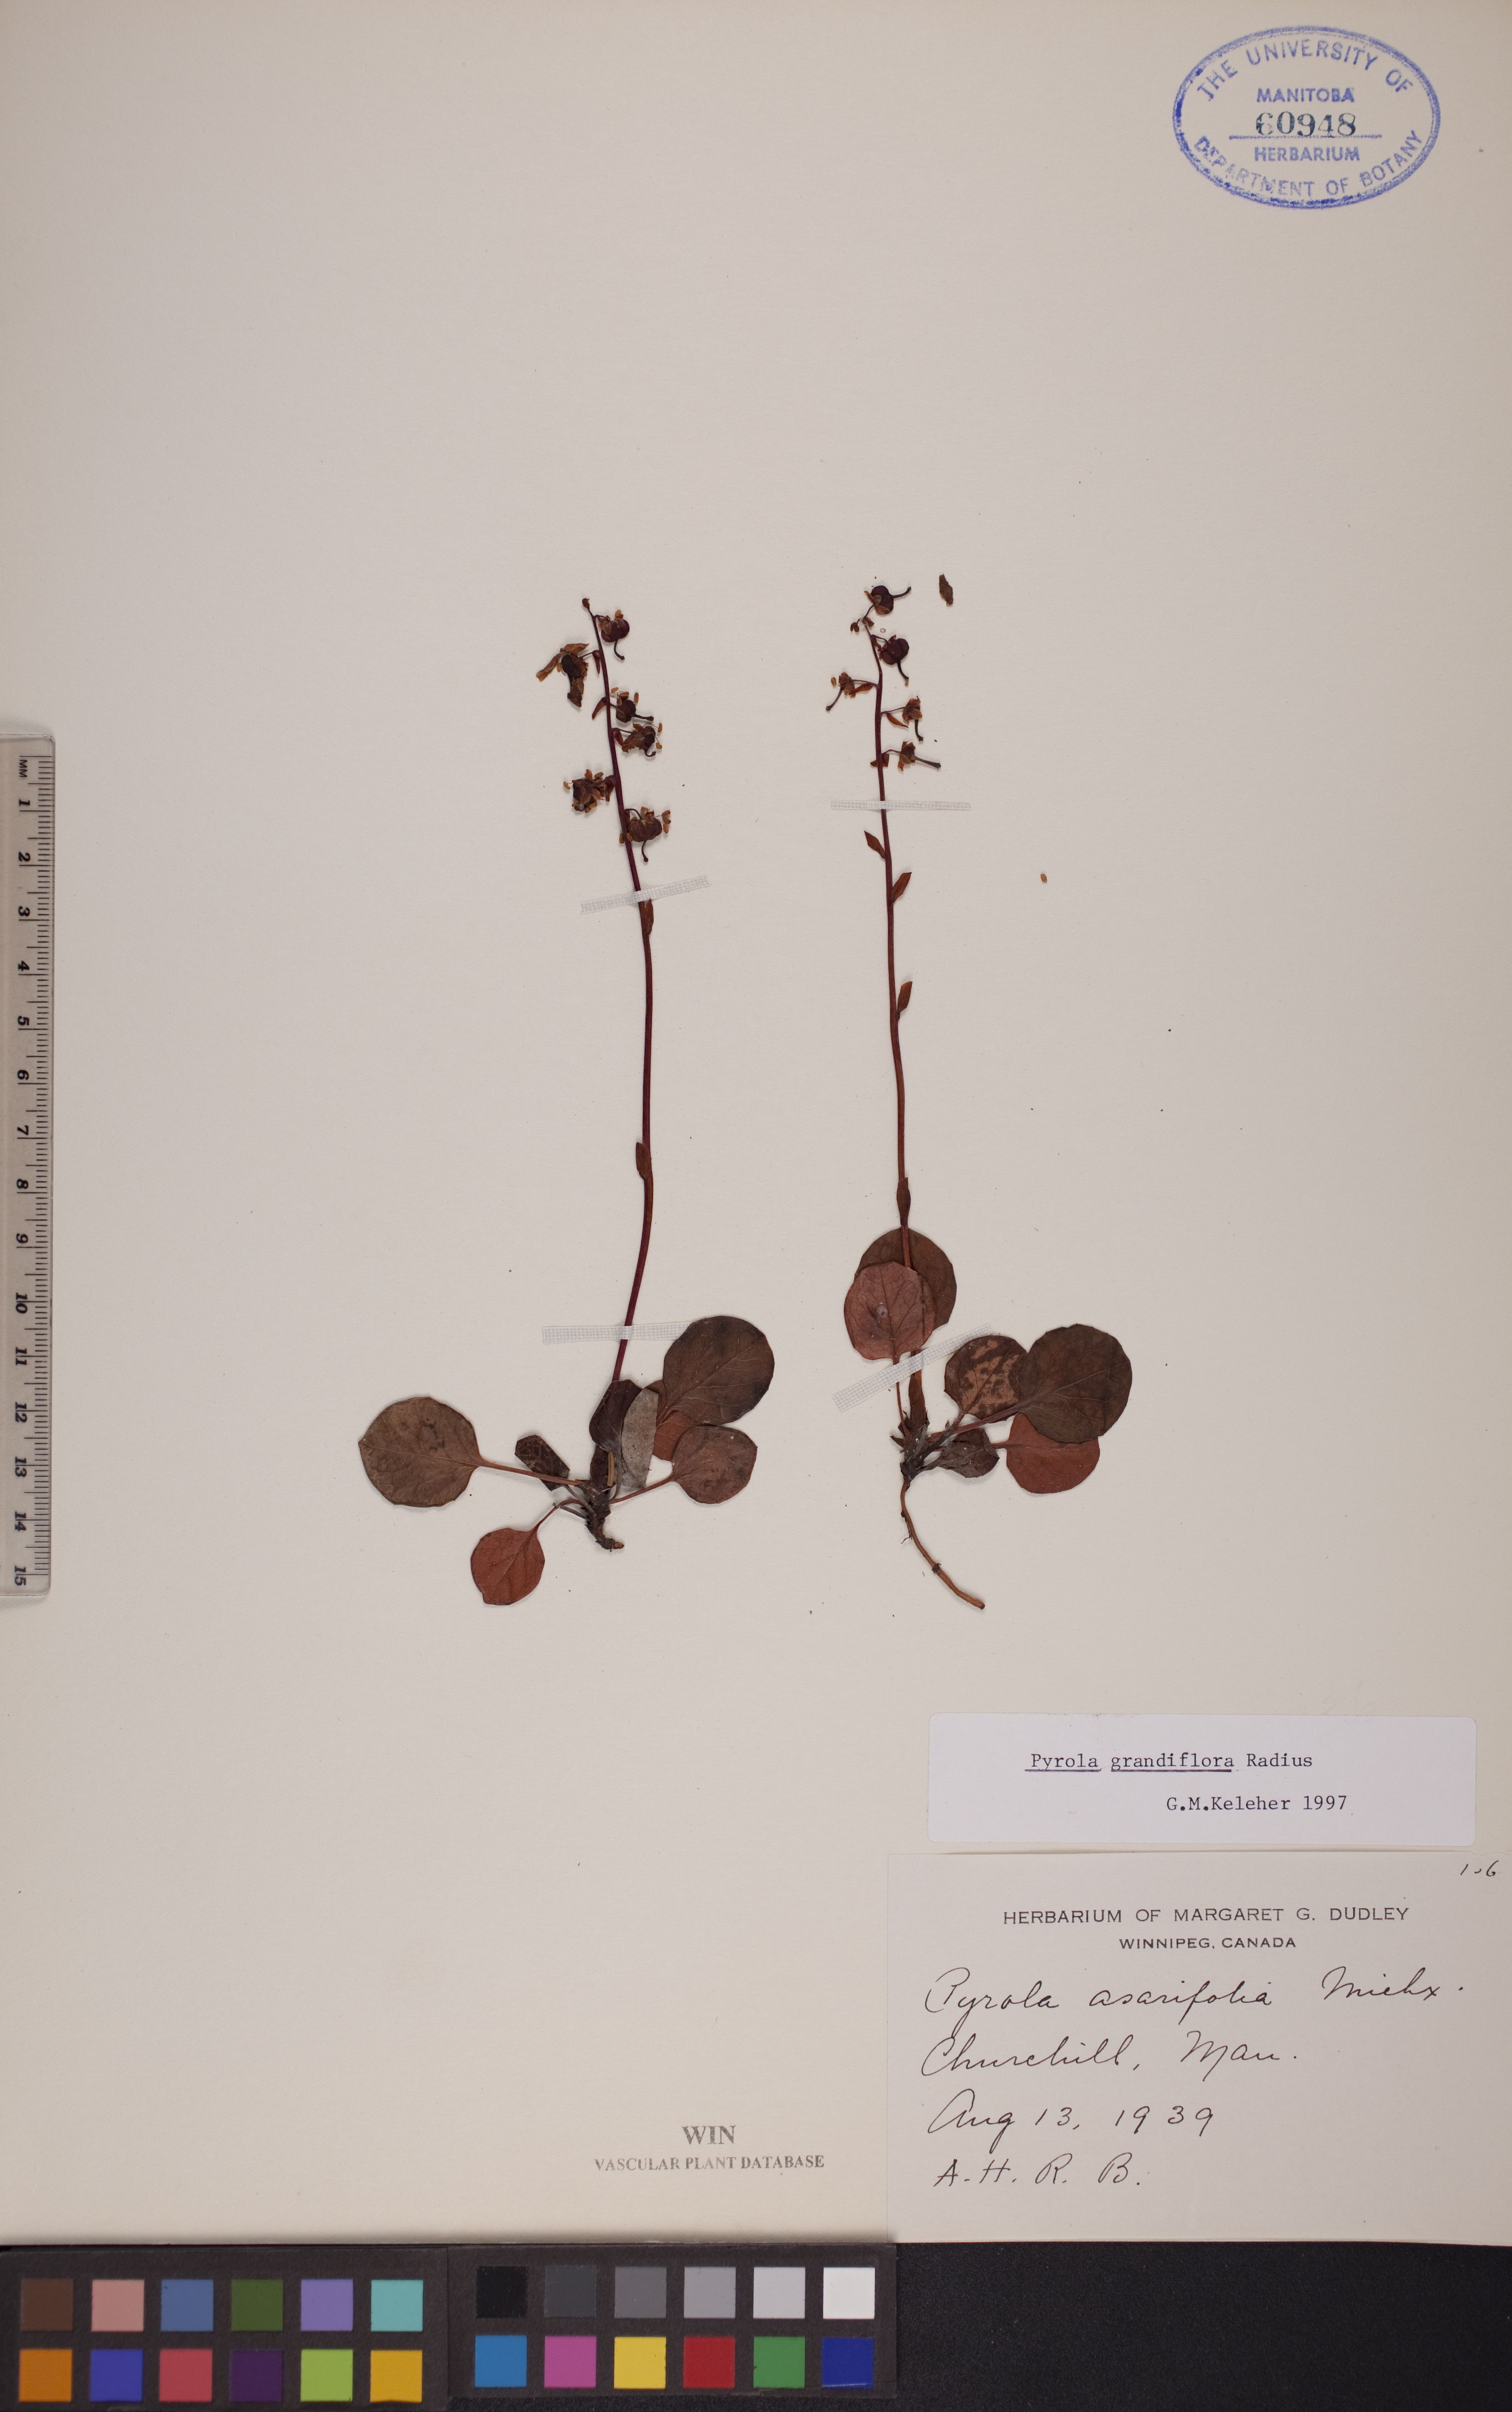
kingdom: Plantae
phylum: Tracheophyta
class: Magnoliopsida
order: Ericales
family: Ericaceae
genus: Pyrola
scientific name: Pyrola grandiflora
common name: Arctic pyrola
